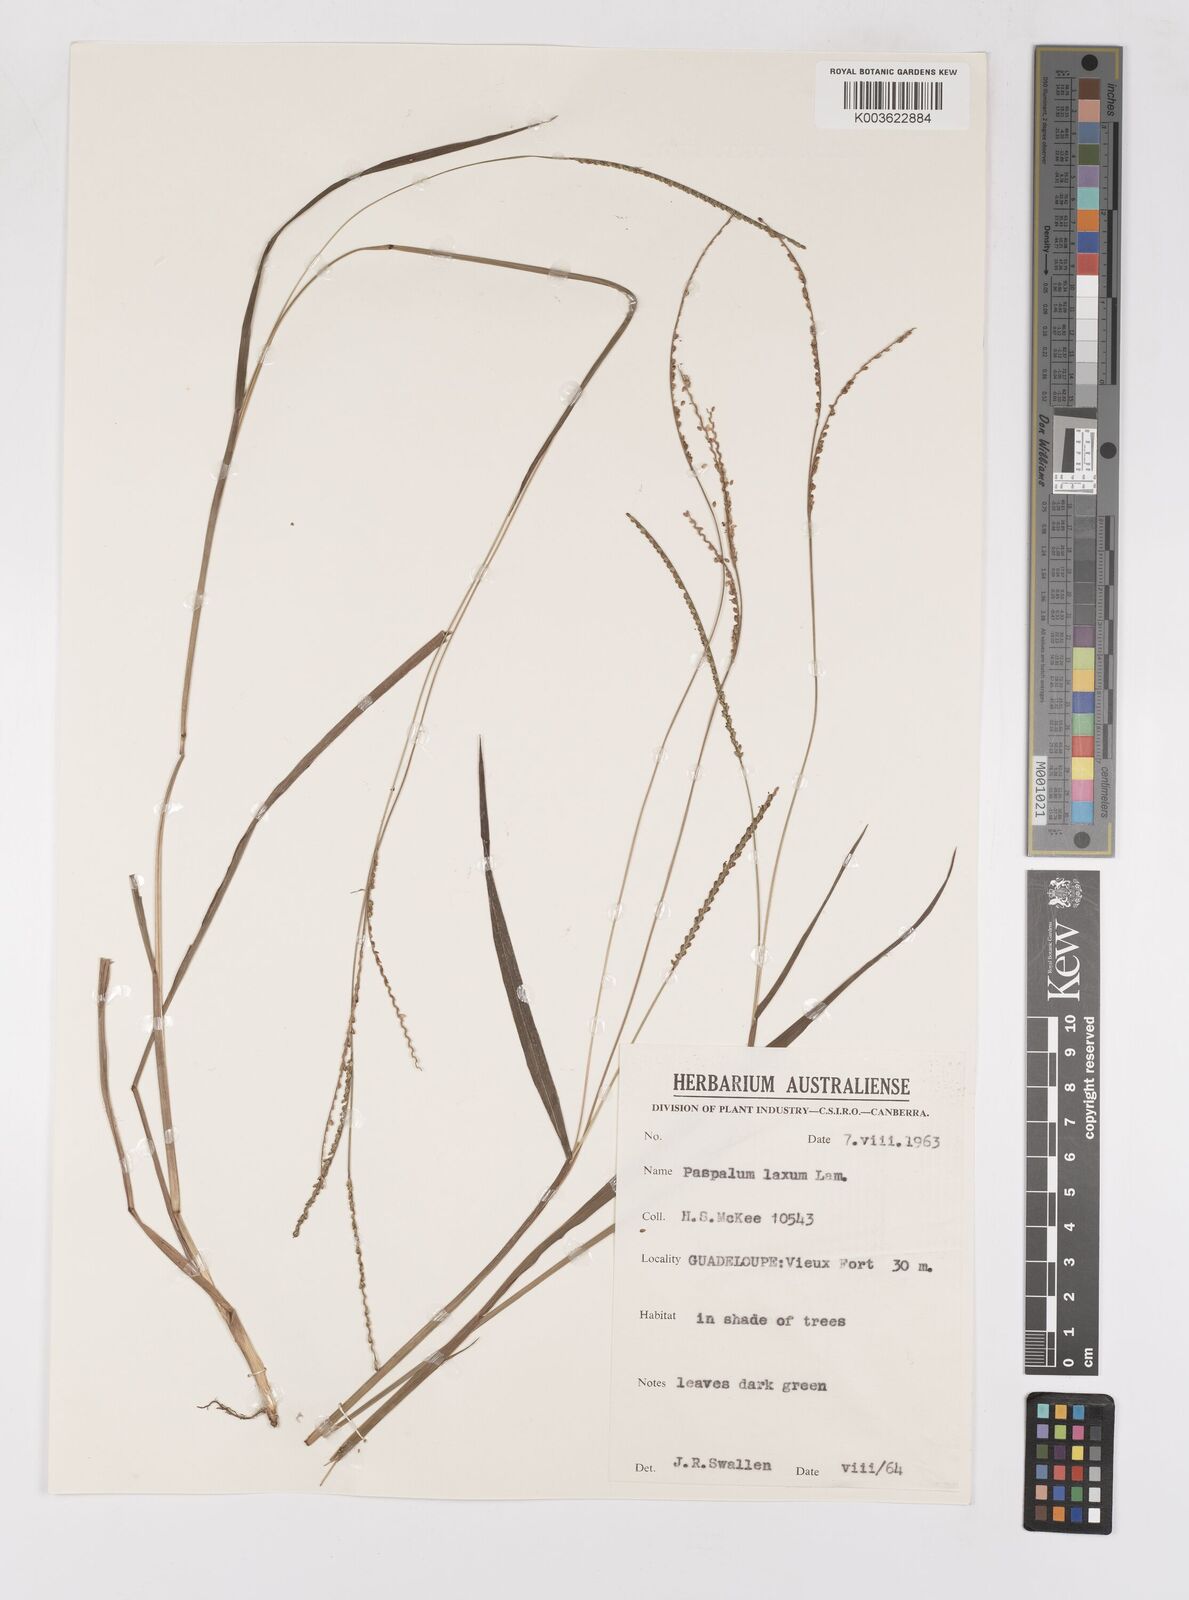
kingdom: Plantae
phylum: Tracheophyta
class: Liliopsida
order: Poales
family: Poaceae
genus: Paspalum
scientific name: Paspalum laxum
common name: Coconut paspalum
